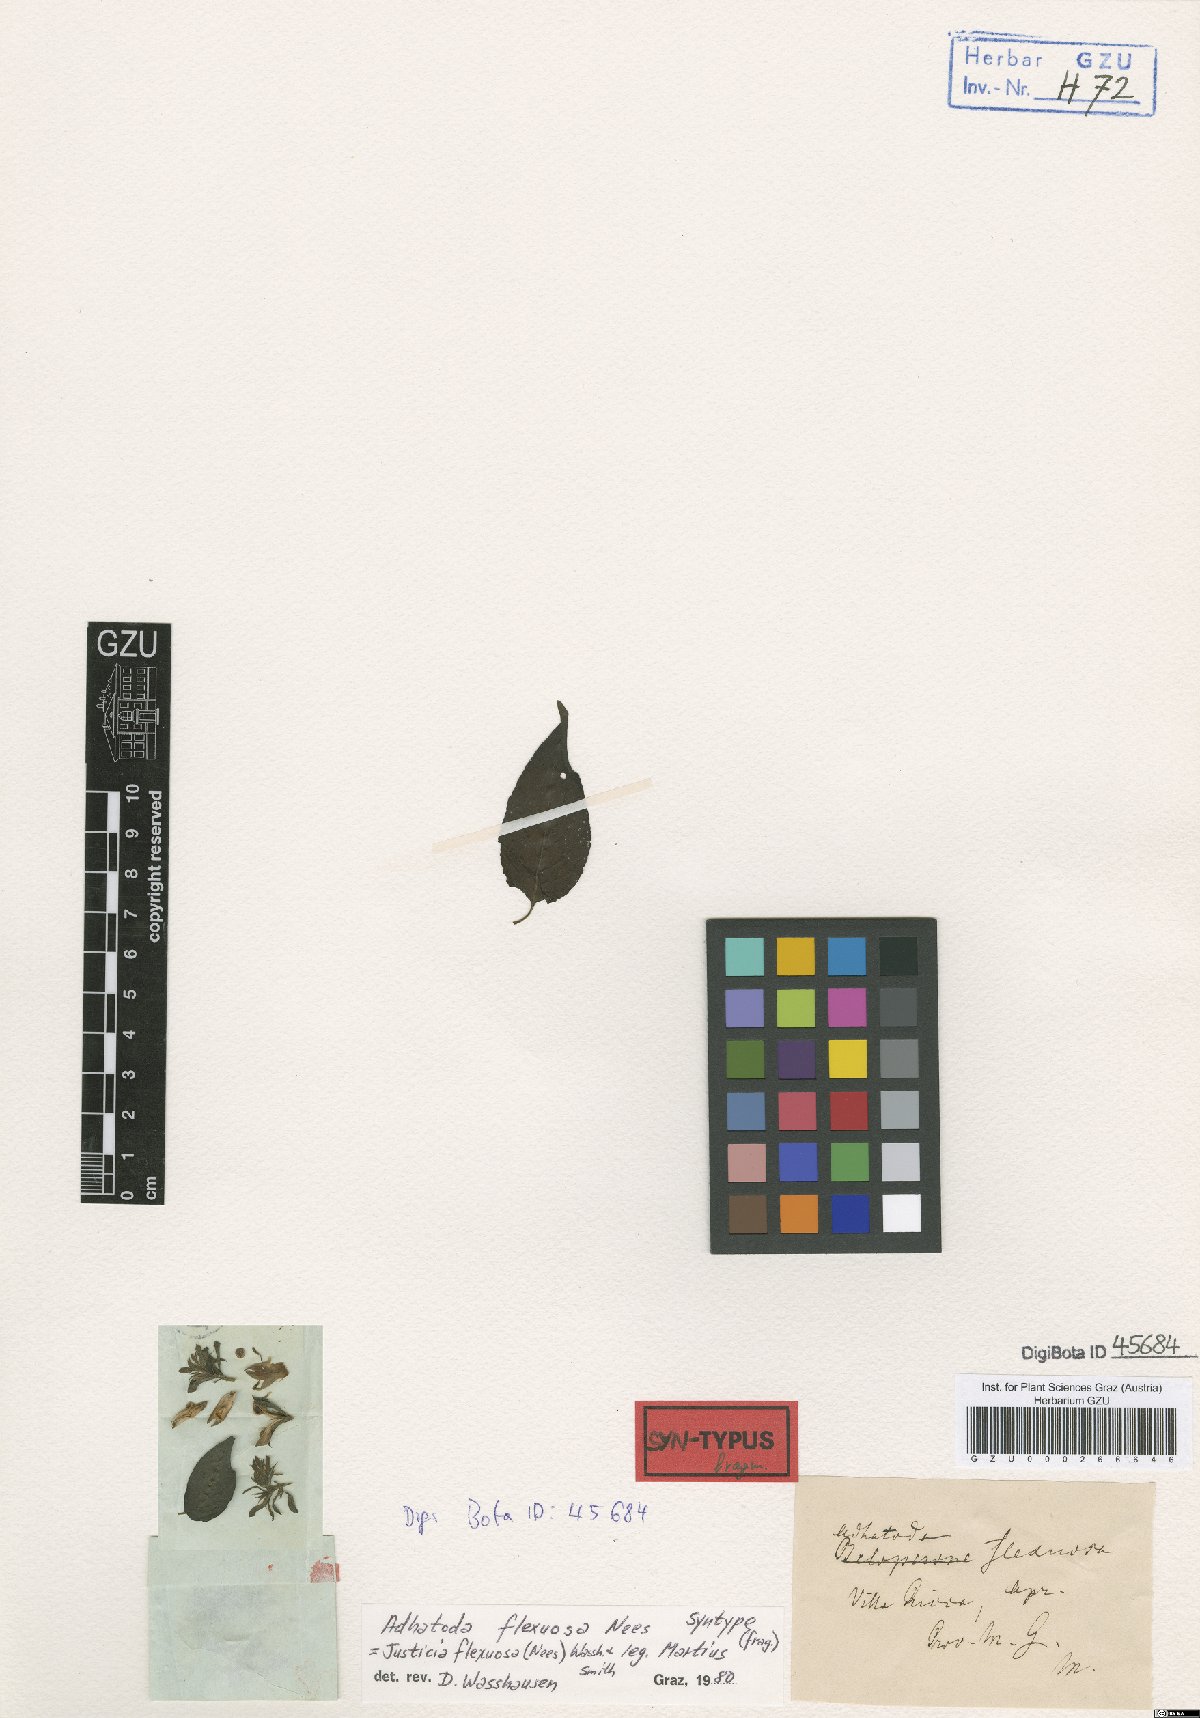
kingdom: Plantae
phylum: Tracheophyta
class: Magnoliopsida
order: Lamiales
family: Acanthaceae
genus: Poikilacanthus
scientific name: Poikilacanthus glandulosus
